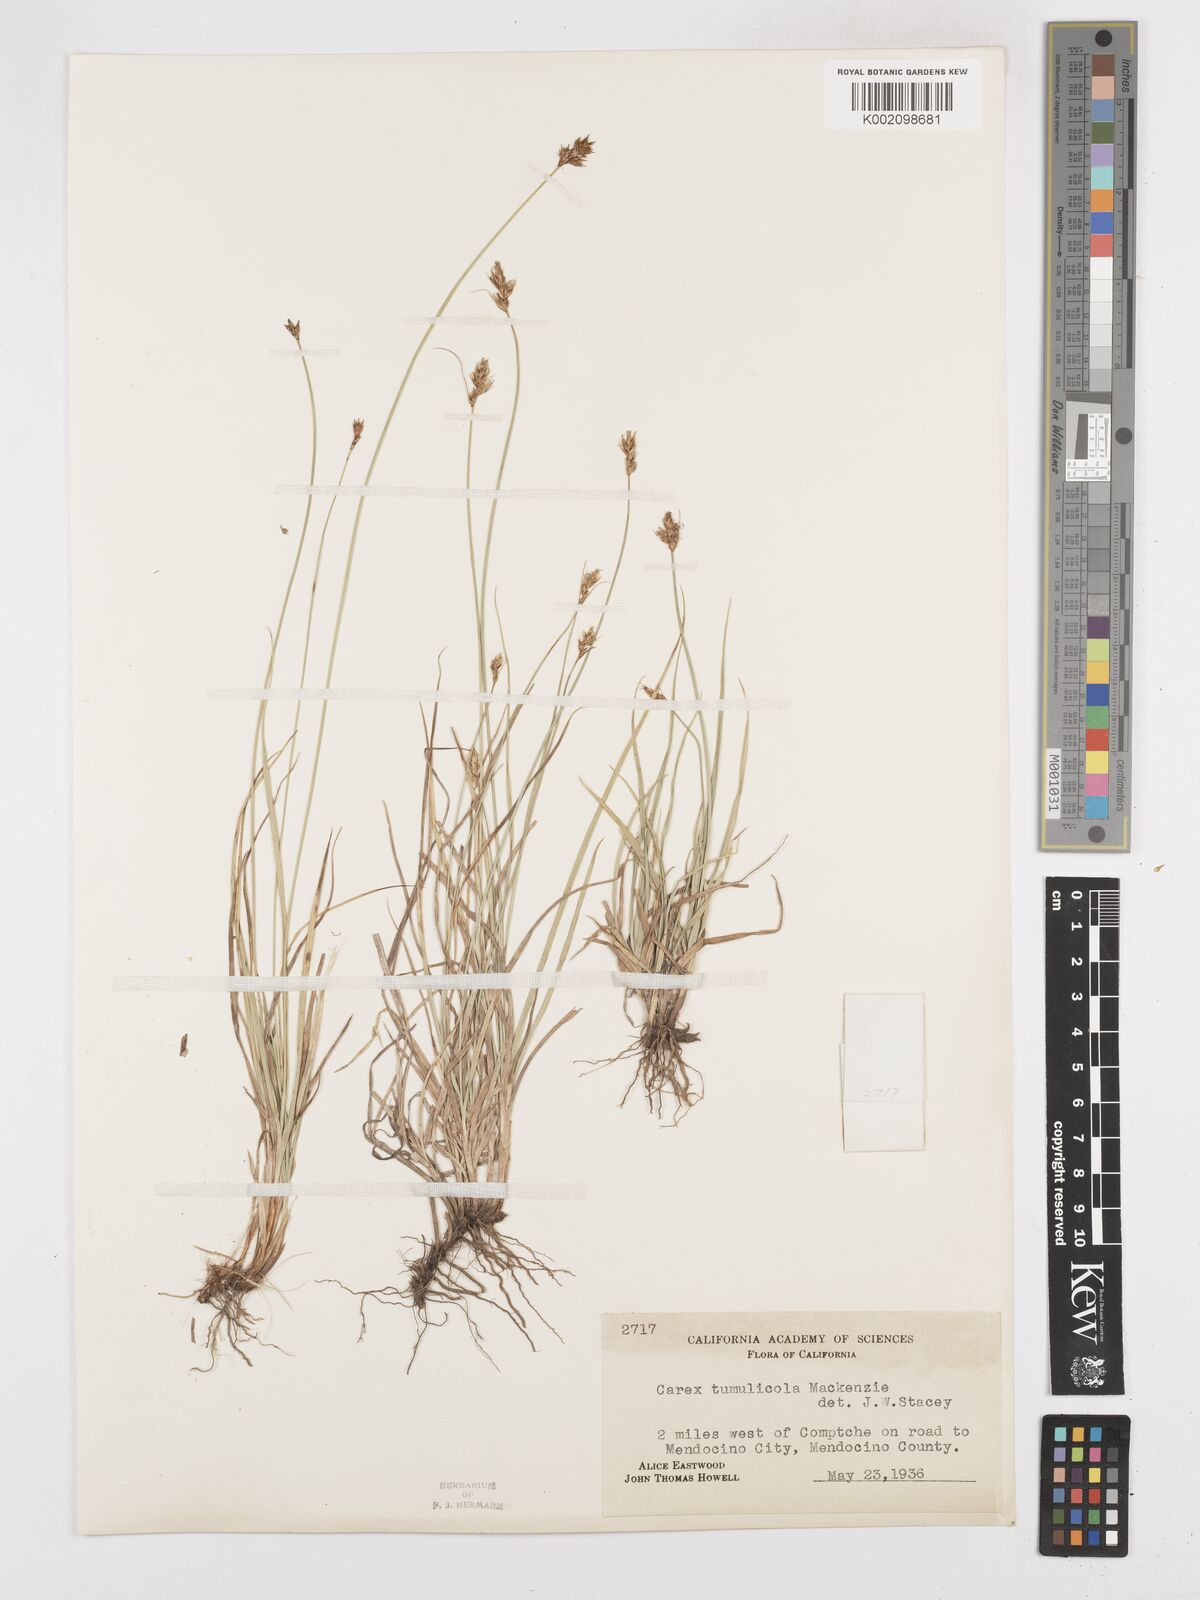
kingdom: Plantae
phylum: Tracheophyta
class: Liliopsida
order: Poales
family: Cyperaceae
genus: Carex
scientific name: Carex tumulicola
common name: Splitawn sedge
